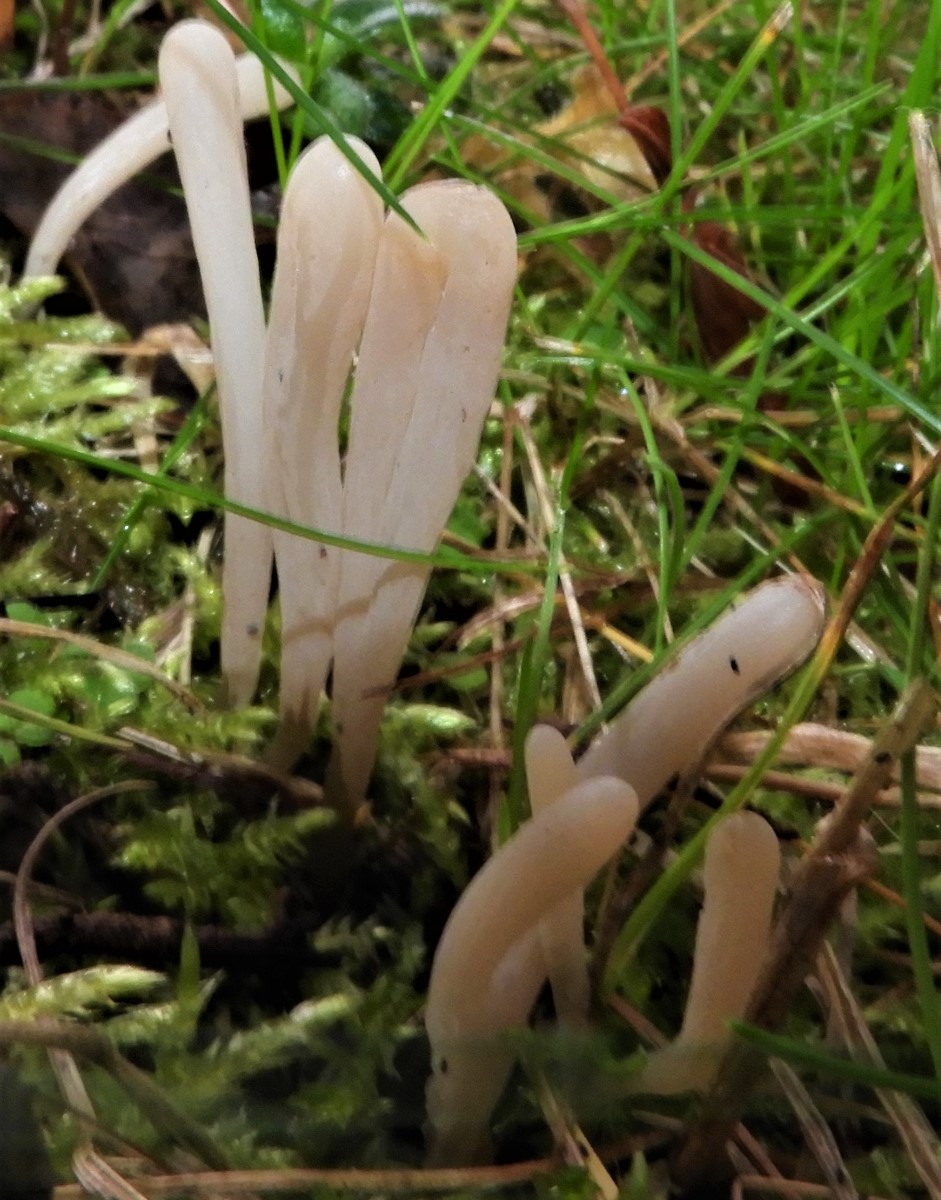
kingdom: Fungi
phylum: Basidiomycota
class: Agaricomycetes
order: Agaricales
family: Clavariaceae
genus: Clavaria
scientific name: Clavaria tenuipes
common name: isabellafarvet køllesvamp
